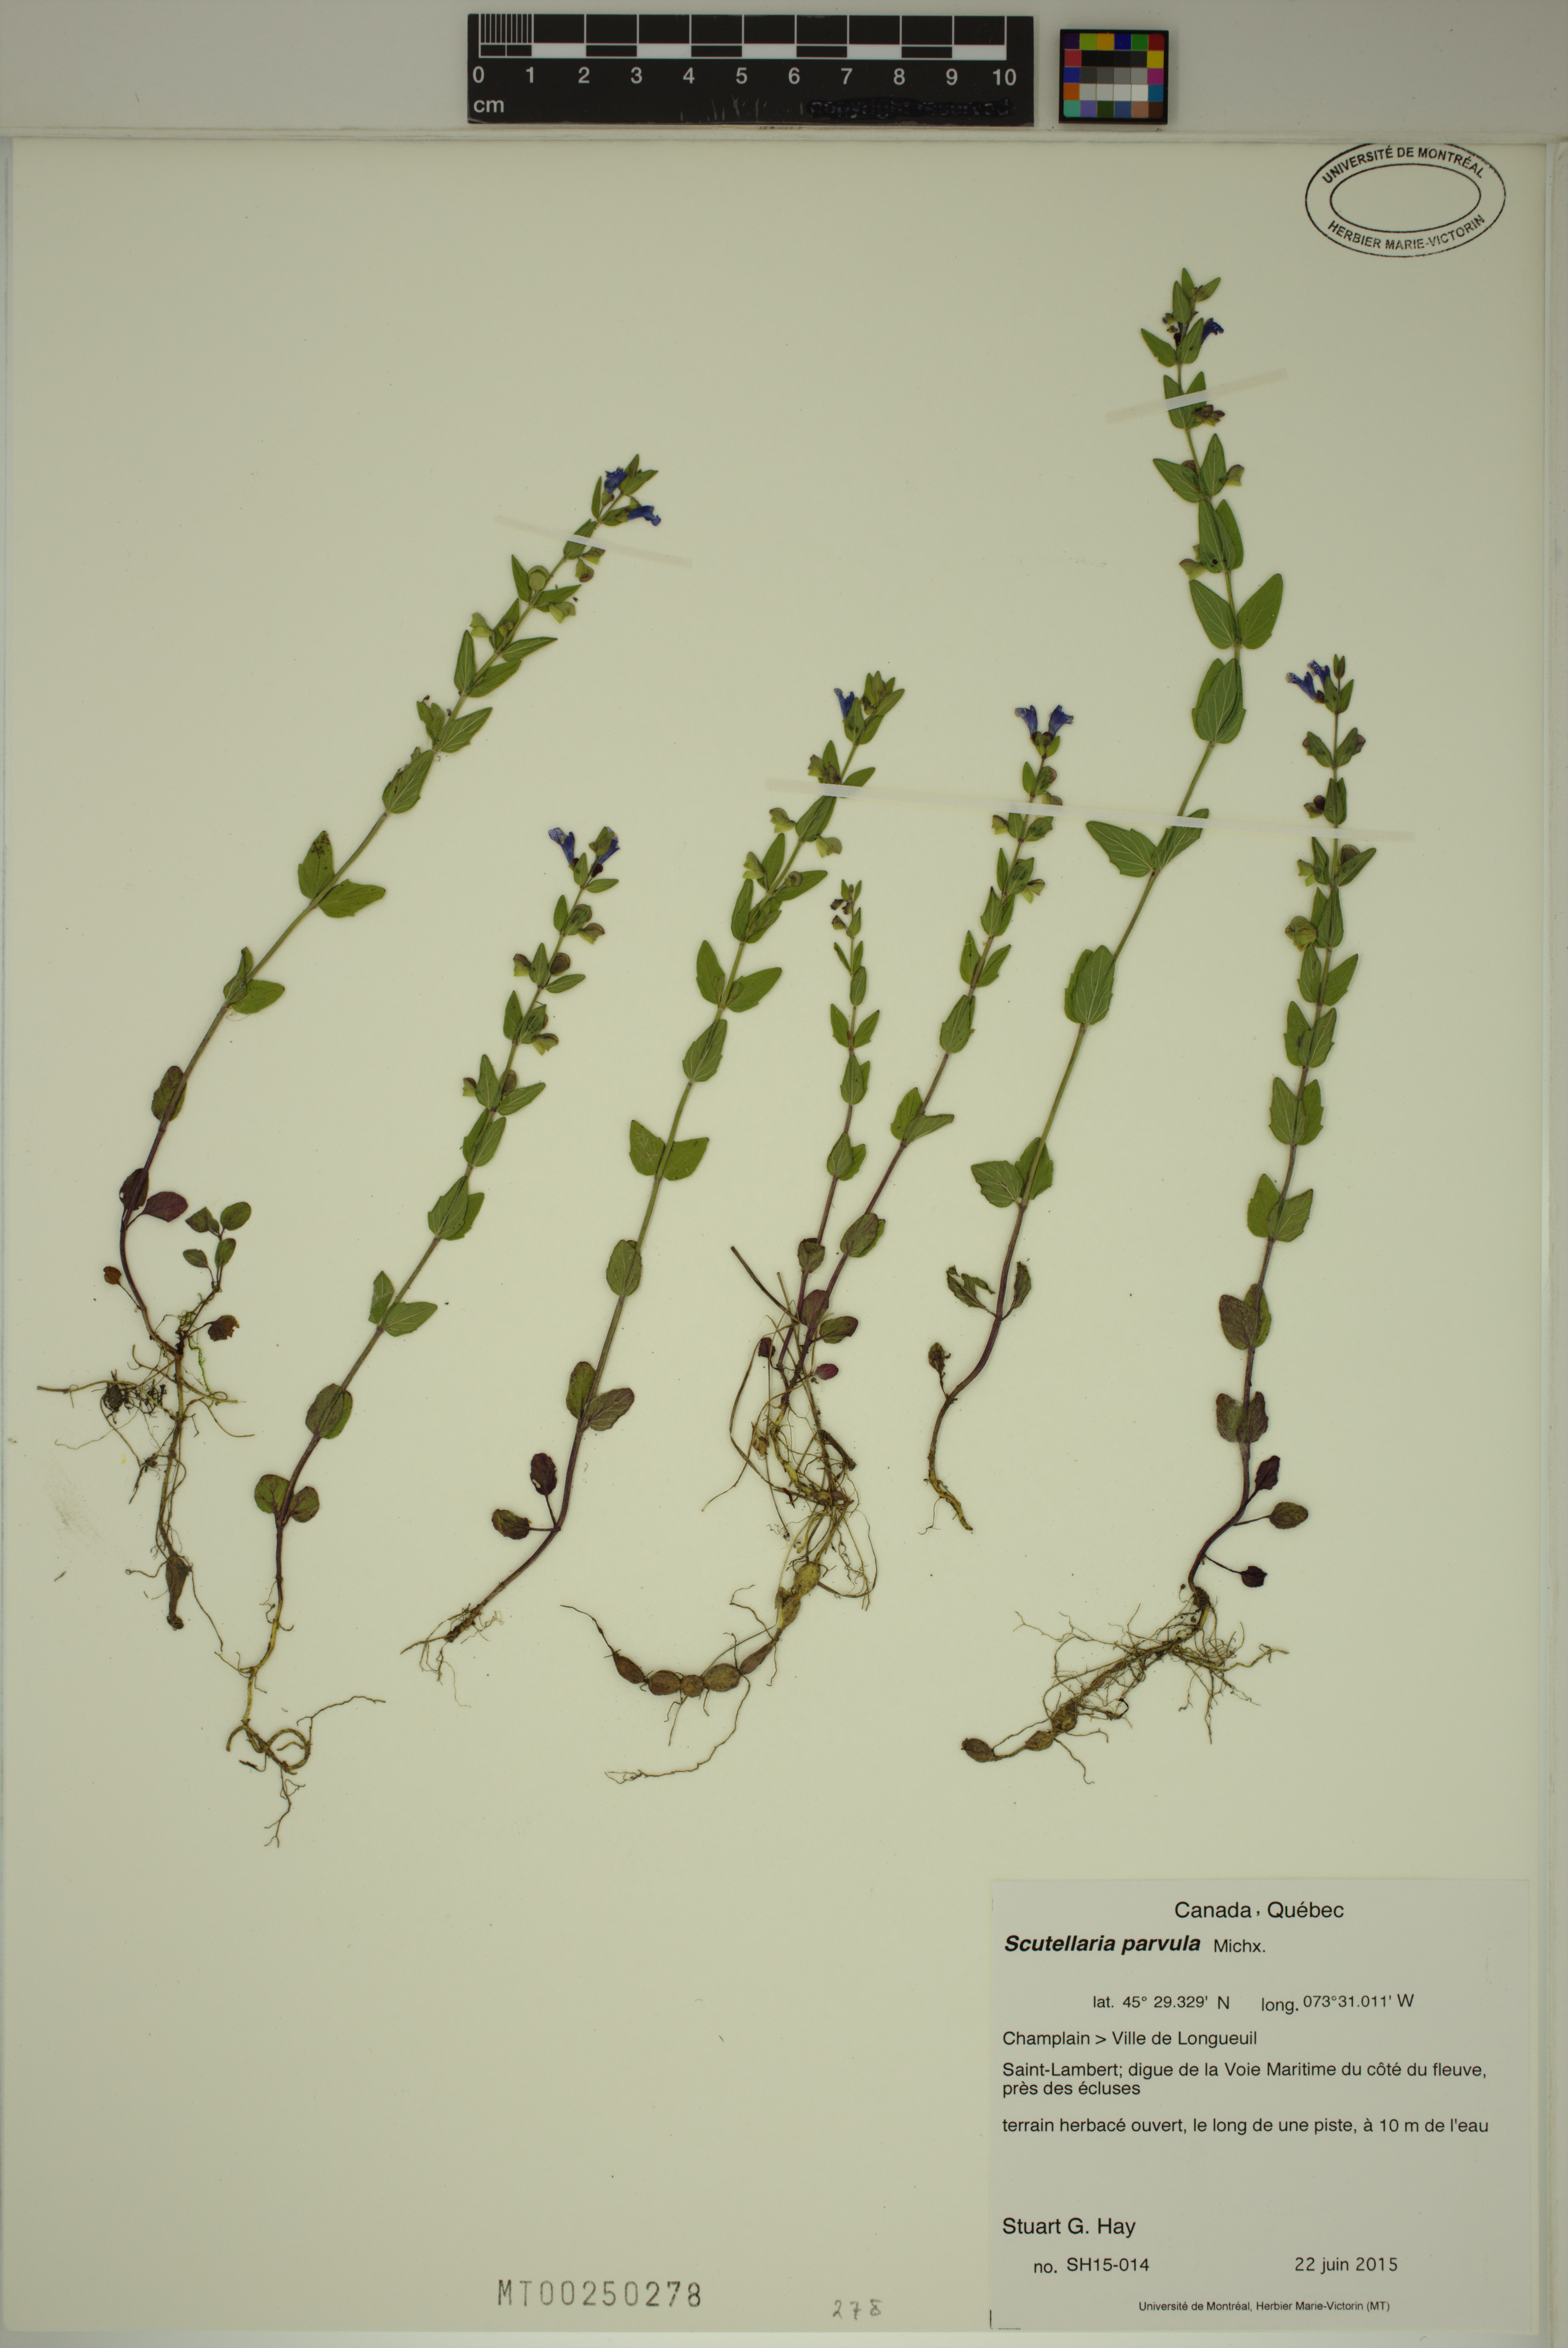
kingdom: Plantae
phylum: Tracheophyta
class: Magnoliopsida
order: Lamiales
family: Lamiaceae
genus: Scutellaria
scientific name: Scutellaria parvula
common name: Little scullcap
